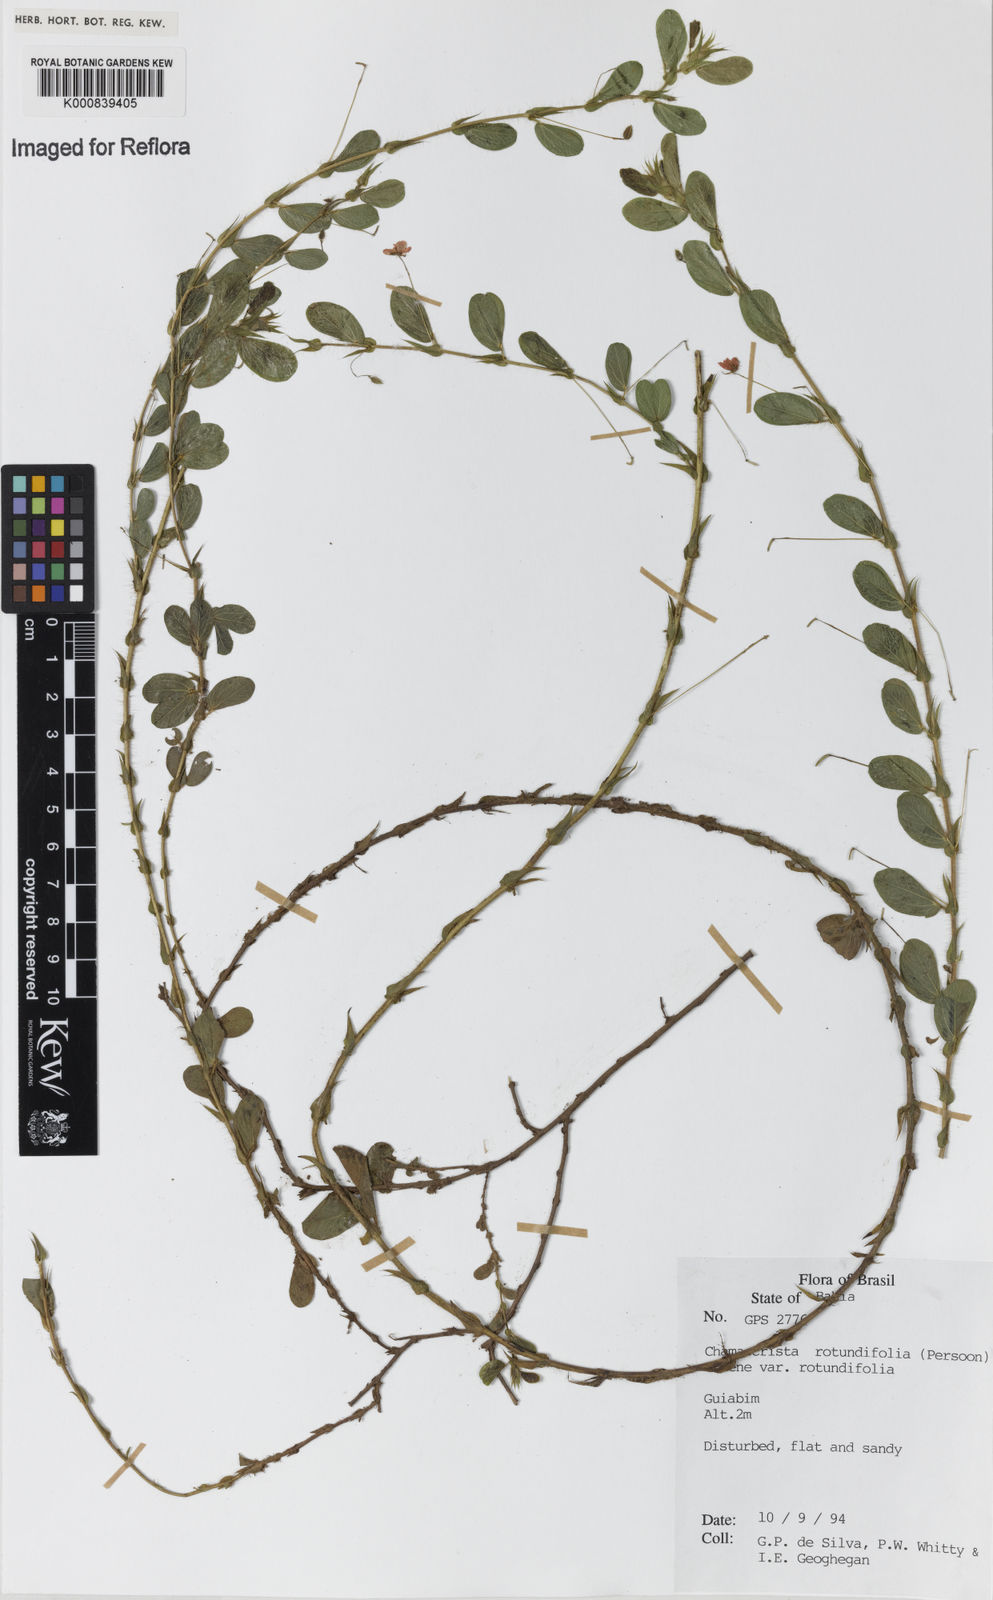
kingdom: Plantae
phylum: Tracheophyta
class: Magnoliopsida
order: Fabales
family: Fabaceae
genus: Chamaecrista
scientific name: Chamaecrista rotundifolia
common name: Round-leaf cassia
